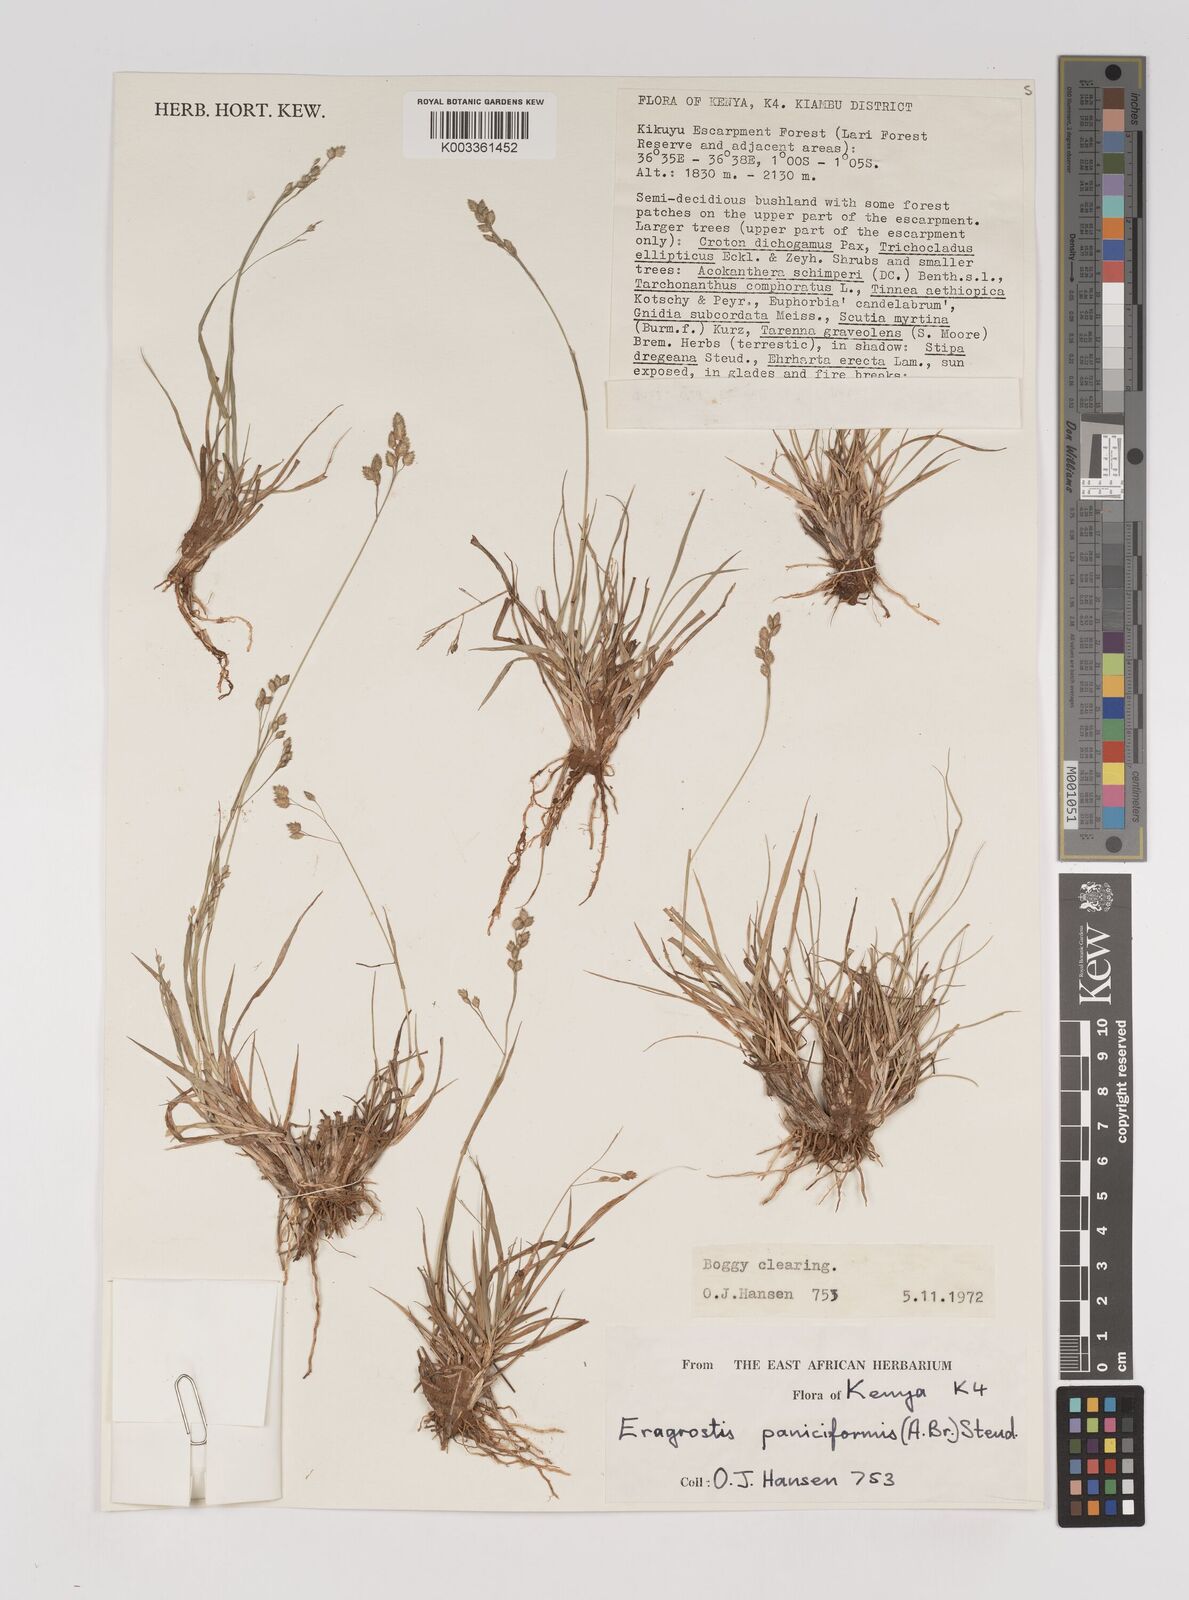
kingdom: Plantae
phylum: Tracheophyta
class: Liliopsida
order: Poales
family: Poaceae
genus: Eragrostis
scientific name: Eragrostis paniciformis
